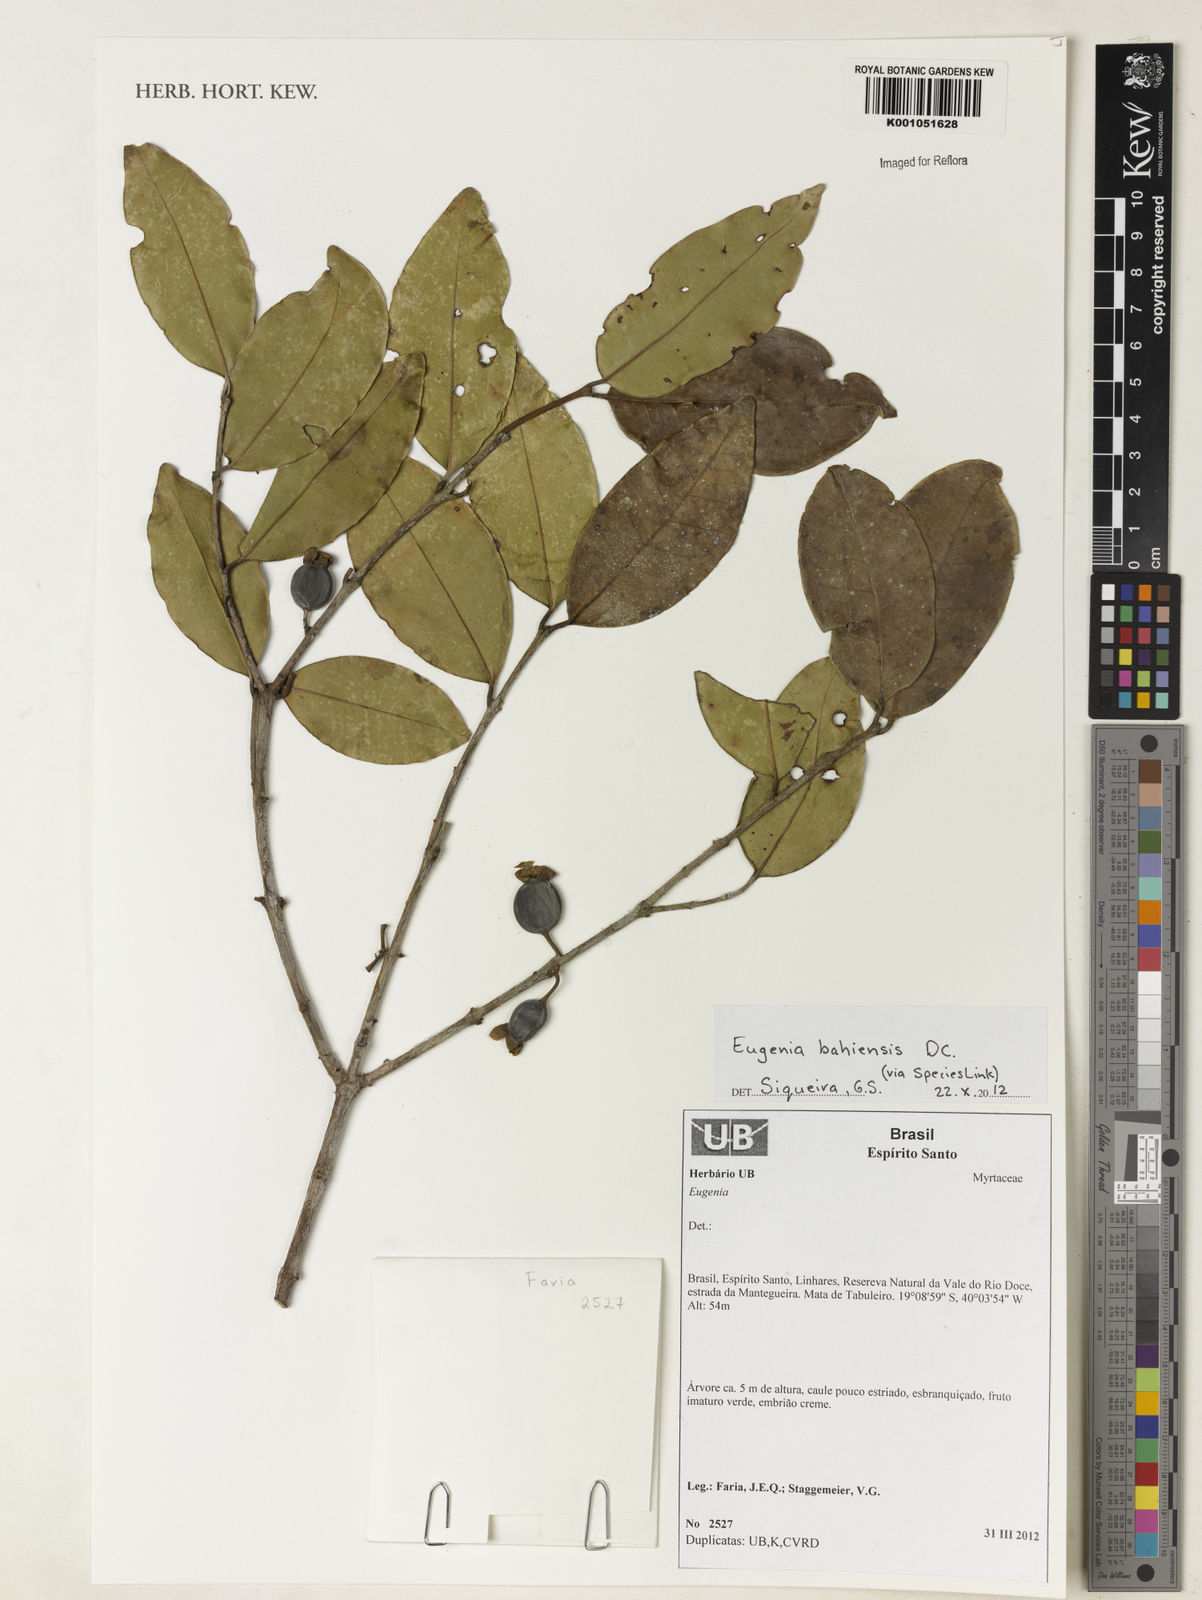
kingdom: Plantae
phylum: Tracheophyta
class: Magnoliopsida
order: Myrtales
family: Myrtaceae
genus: Eugenia
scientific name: Eugenia bahiensis
